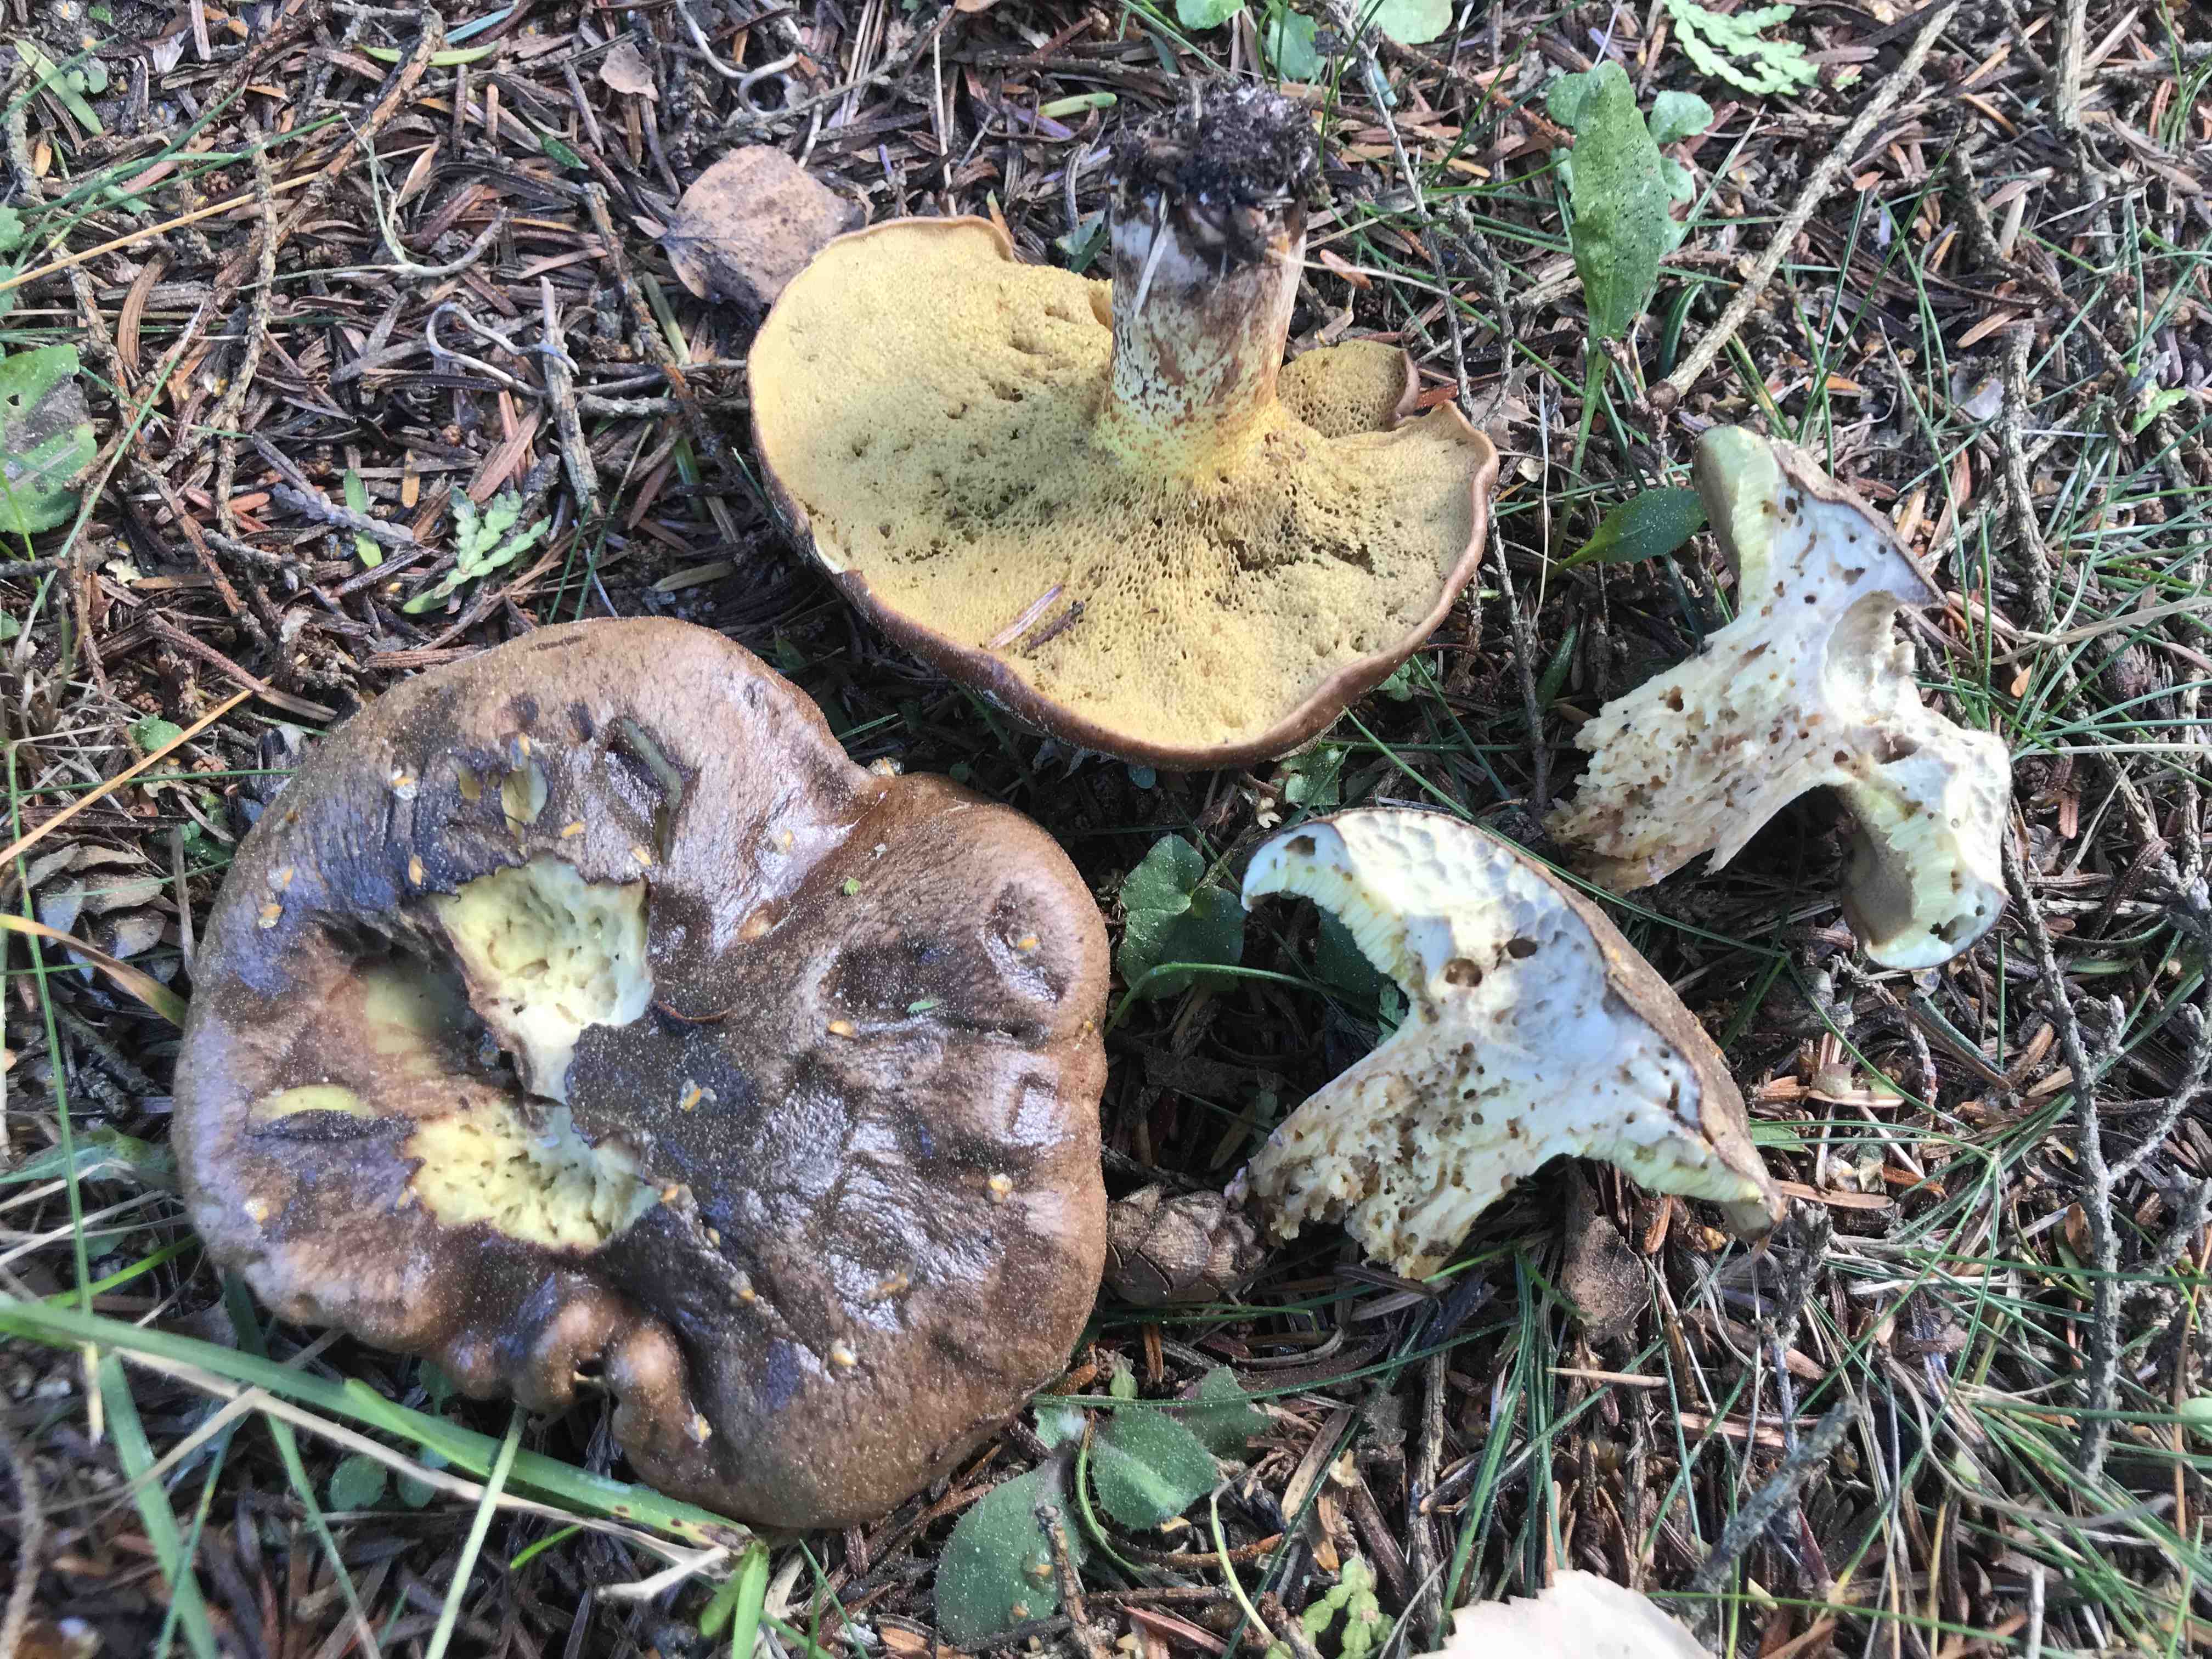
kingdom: Fungi
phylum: Basidiomycota
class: Agaricomycetes
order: Boletales
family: Suillaceae
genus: Suillus
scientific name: Suillus collinitus
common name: rosafodet slimrørhat
